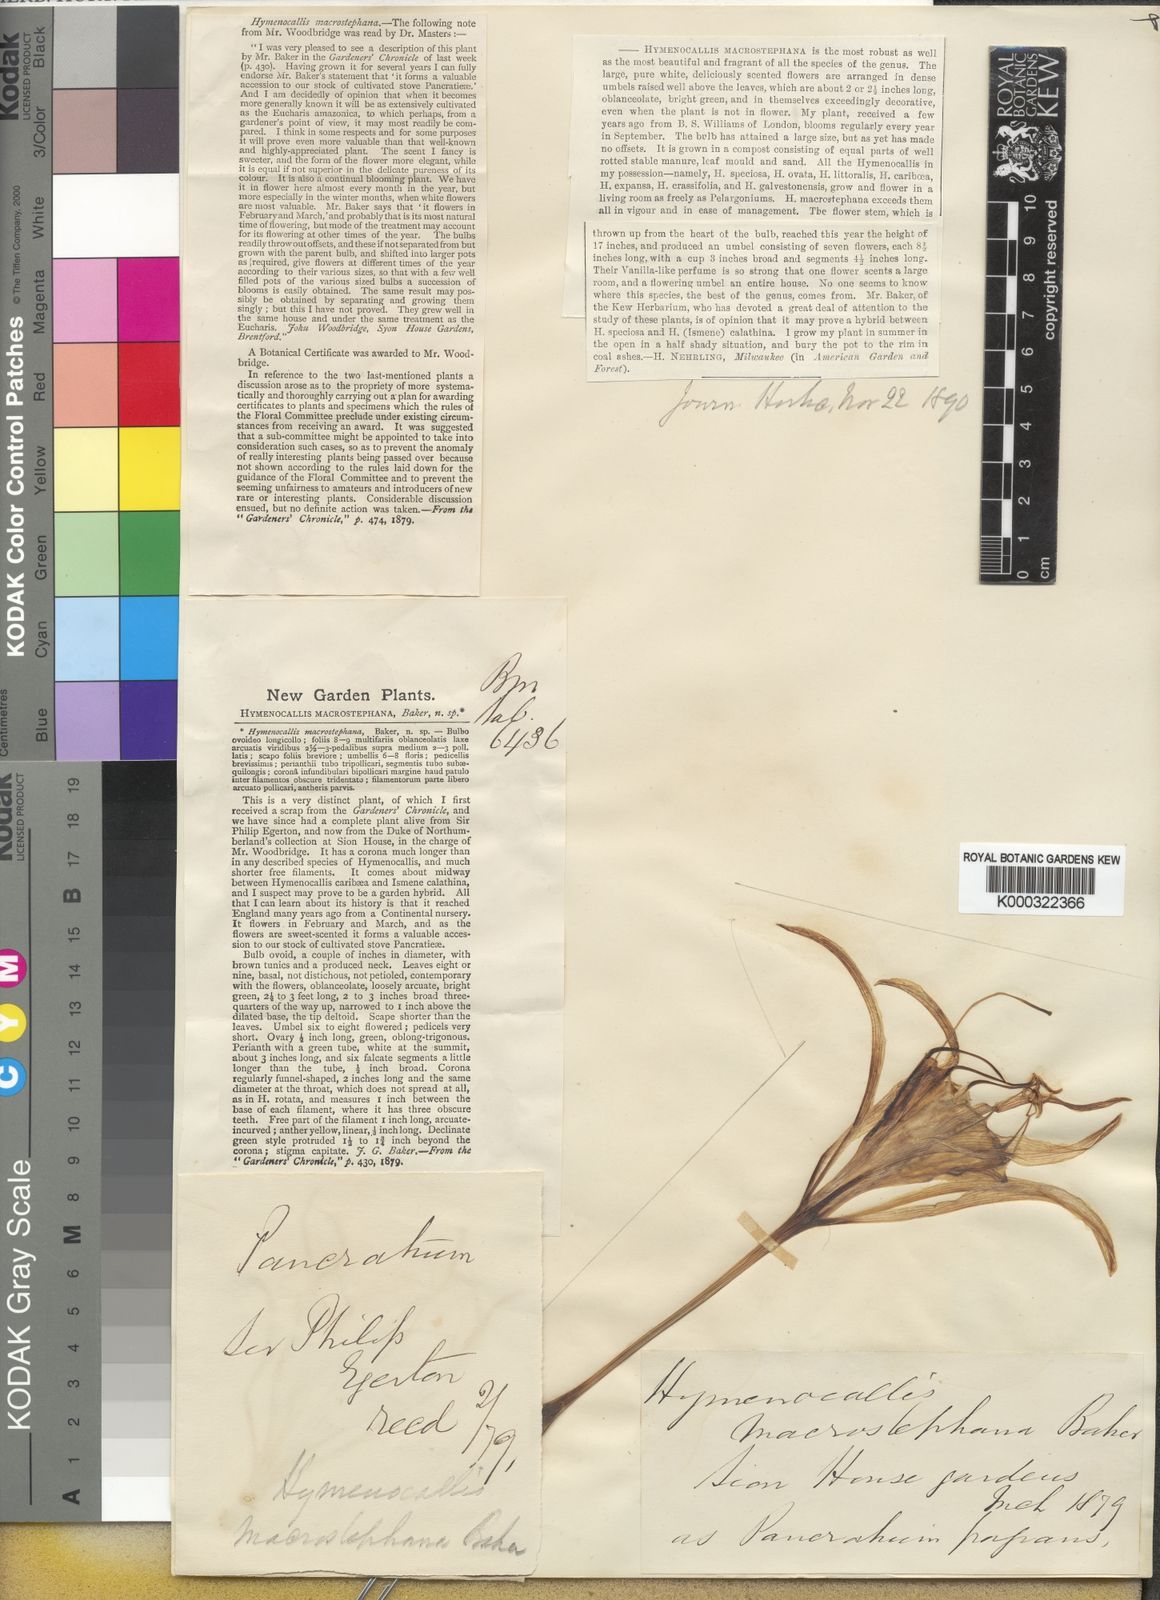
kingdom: Plantae
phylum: Tracheophyta
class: Liliopsida
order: Asparagales
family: Amaryllidaceae
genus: Hymenocallis
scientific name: Hymenocallis macrostephana
